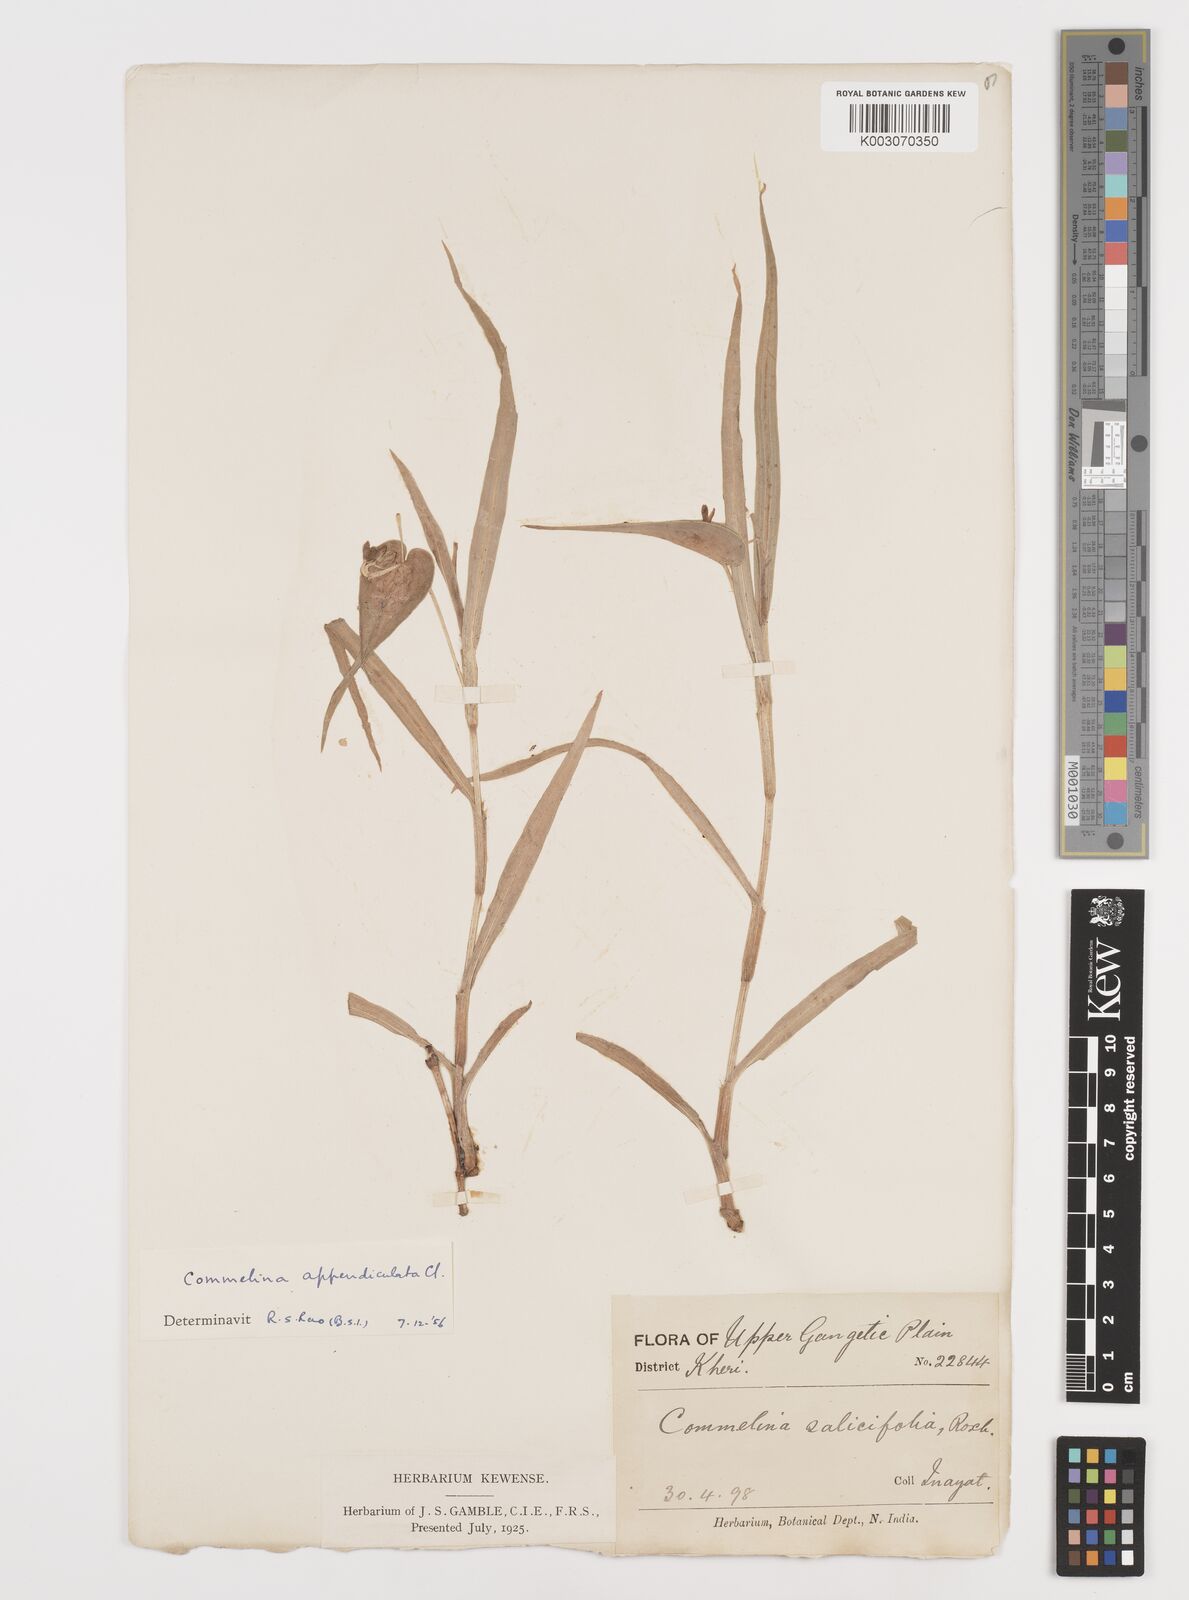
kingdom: Plantae
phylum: Tracheophyta
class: Liliopsida
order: Commelinales
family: Commelinaceae
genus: Commelina
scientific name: Commelina appendiculata
